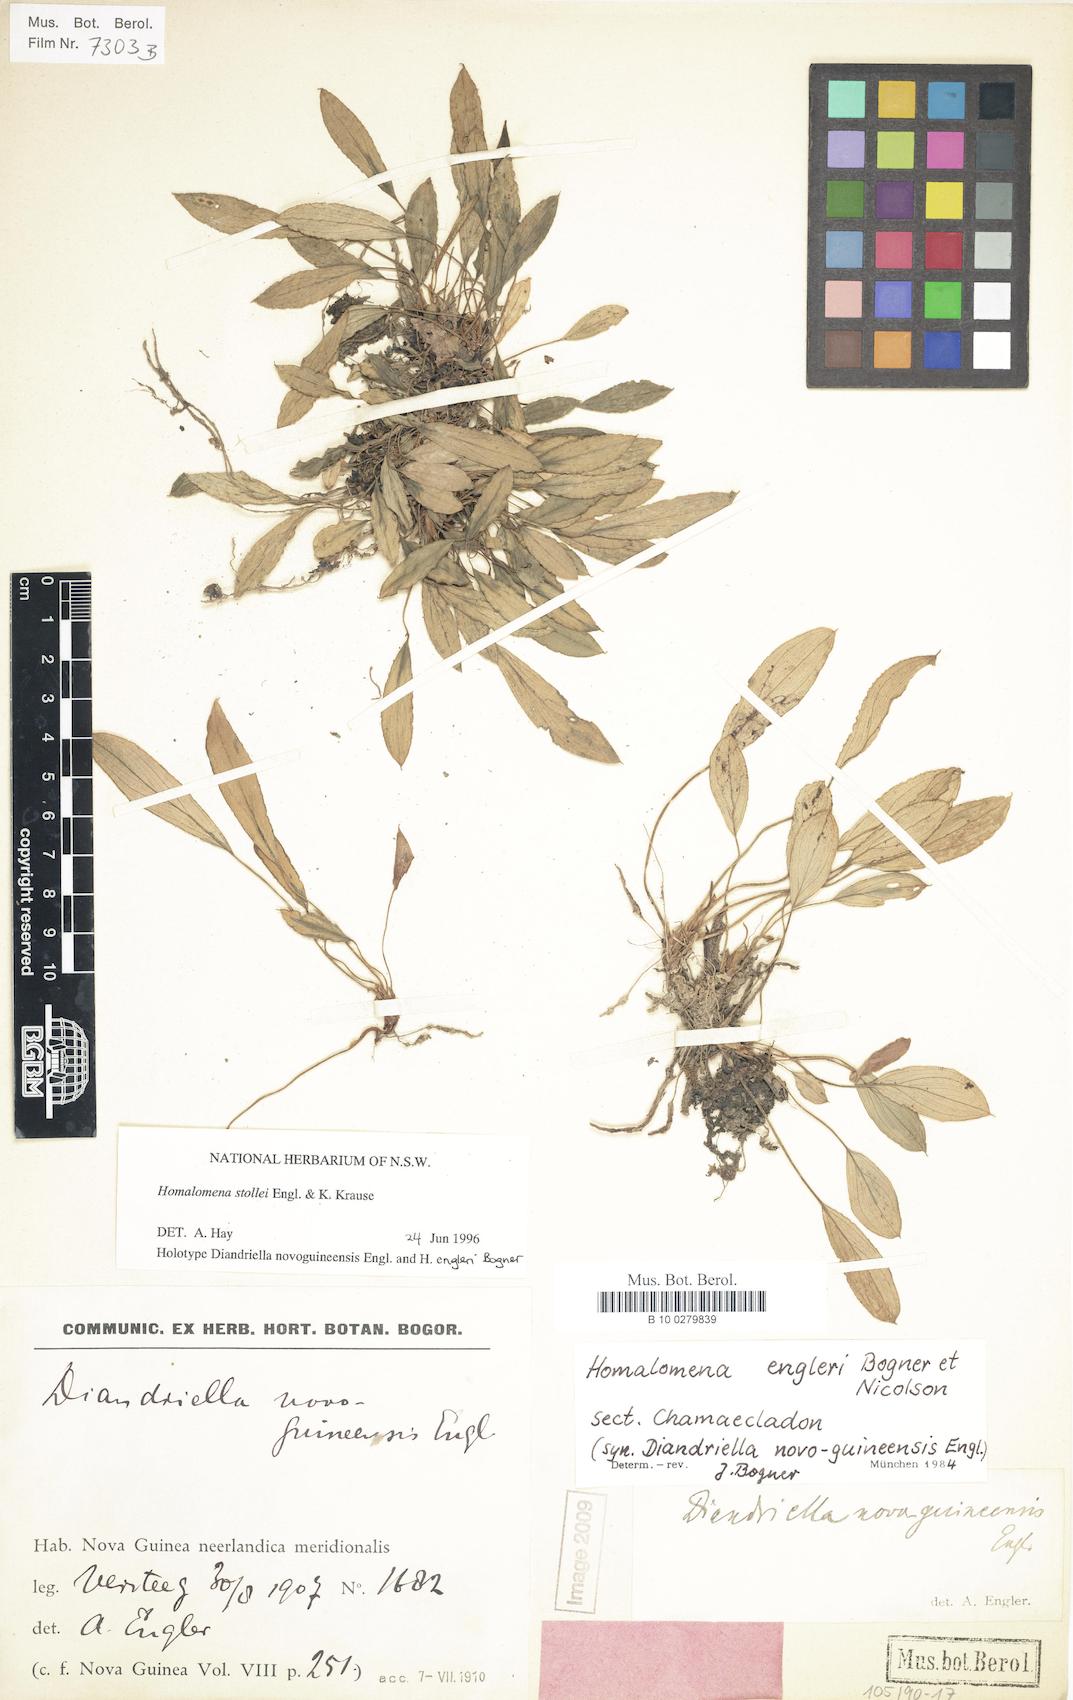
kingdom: Plantae
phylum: Tracheophyta
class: Liliopsida
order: Alismatales
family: Araceae
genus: Homalomena
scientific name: Homalomena peekelii
